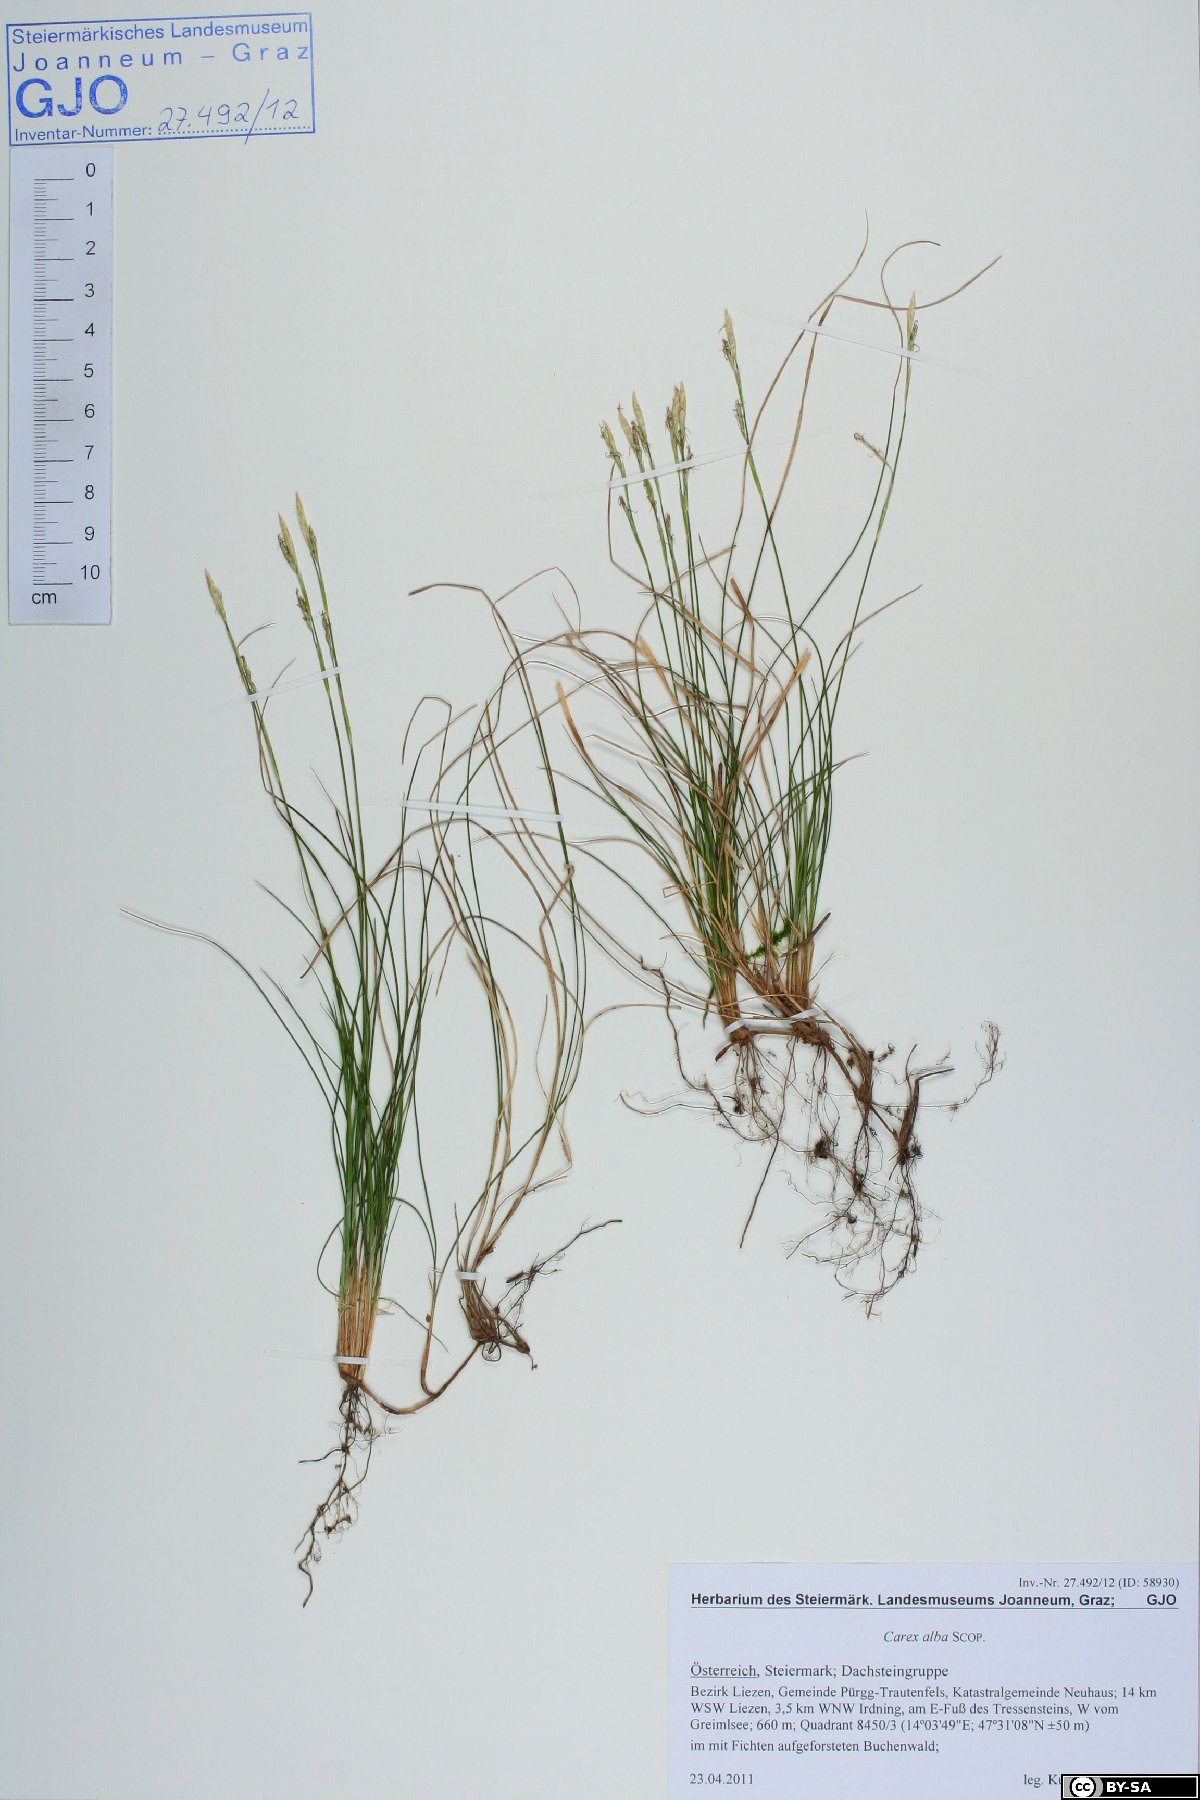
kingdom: Plantae
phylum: Tracheophyta
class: Liliopsida
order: Poales
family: Cyperaceae
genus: Carex
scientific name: Carex alba
